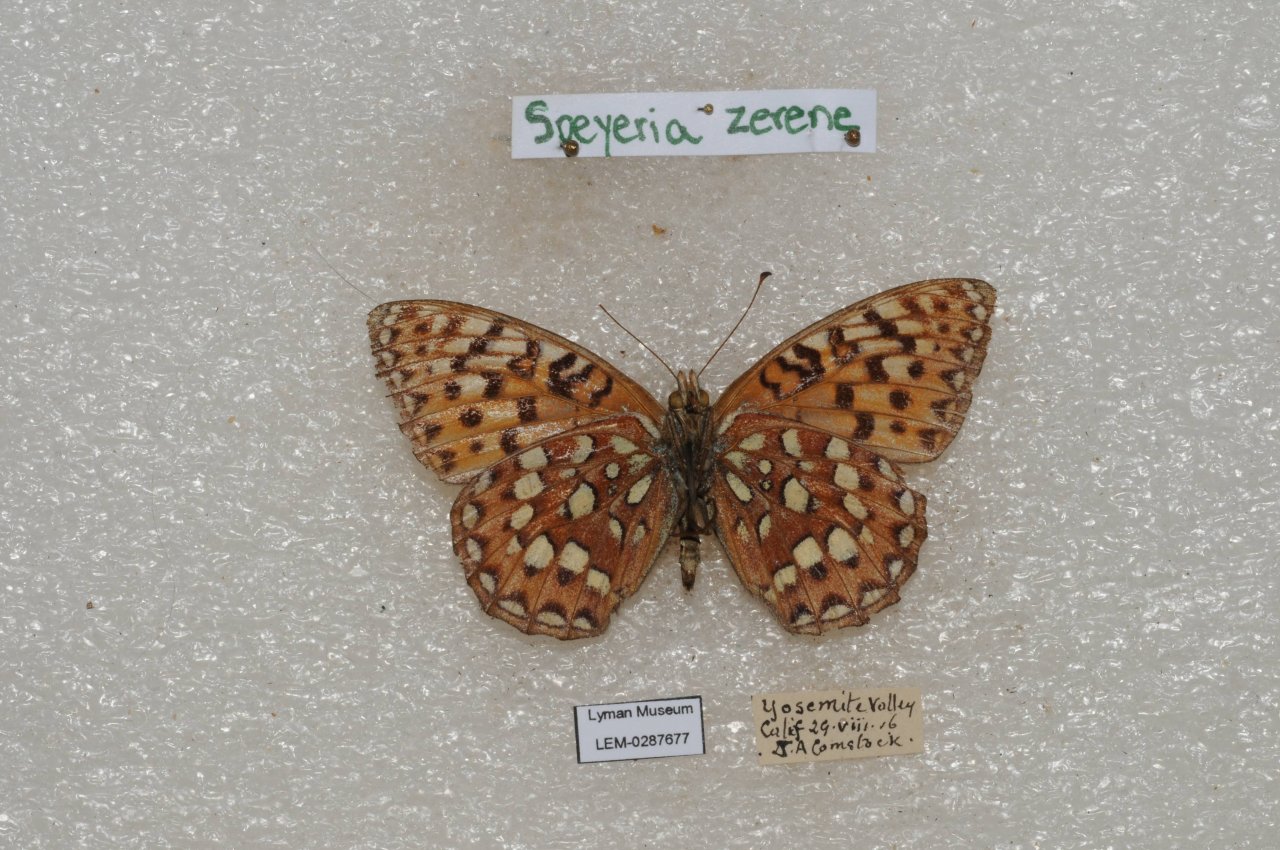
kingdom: Animalia
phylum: Arthropoda
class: Insecta
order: Lepidoptera
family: Nymphalidae
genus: Speyeria
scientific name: Speyeria zerene
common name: Zerene Fritillary
